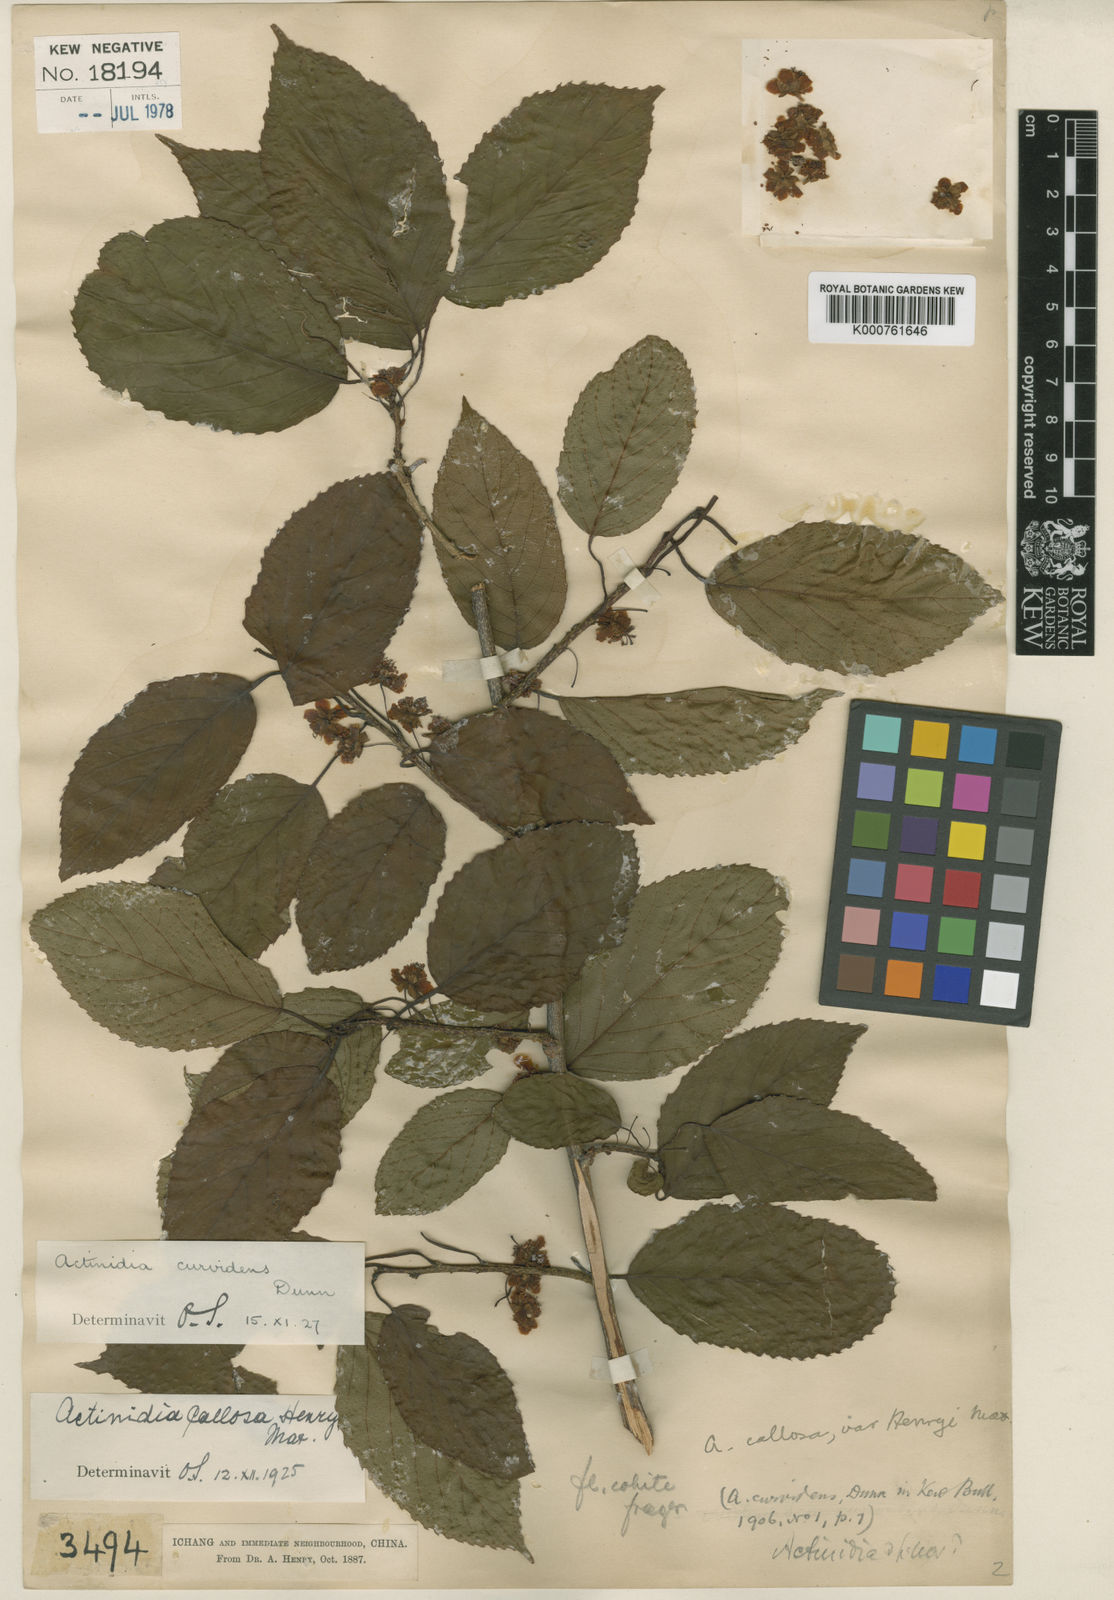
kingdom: Plantae
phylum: Tracheophyta
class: Magnoliopsida
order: Ericales
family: Actinidiaceae
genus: Actinidia
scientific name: Actinidia callosa
